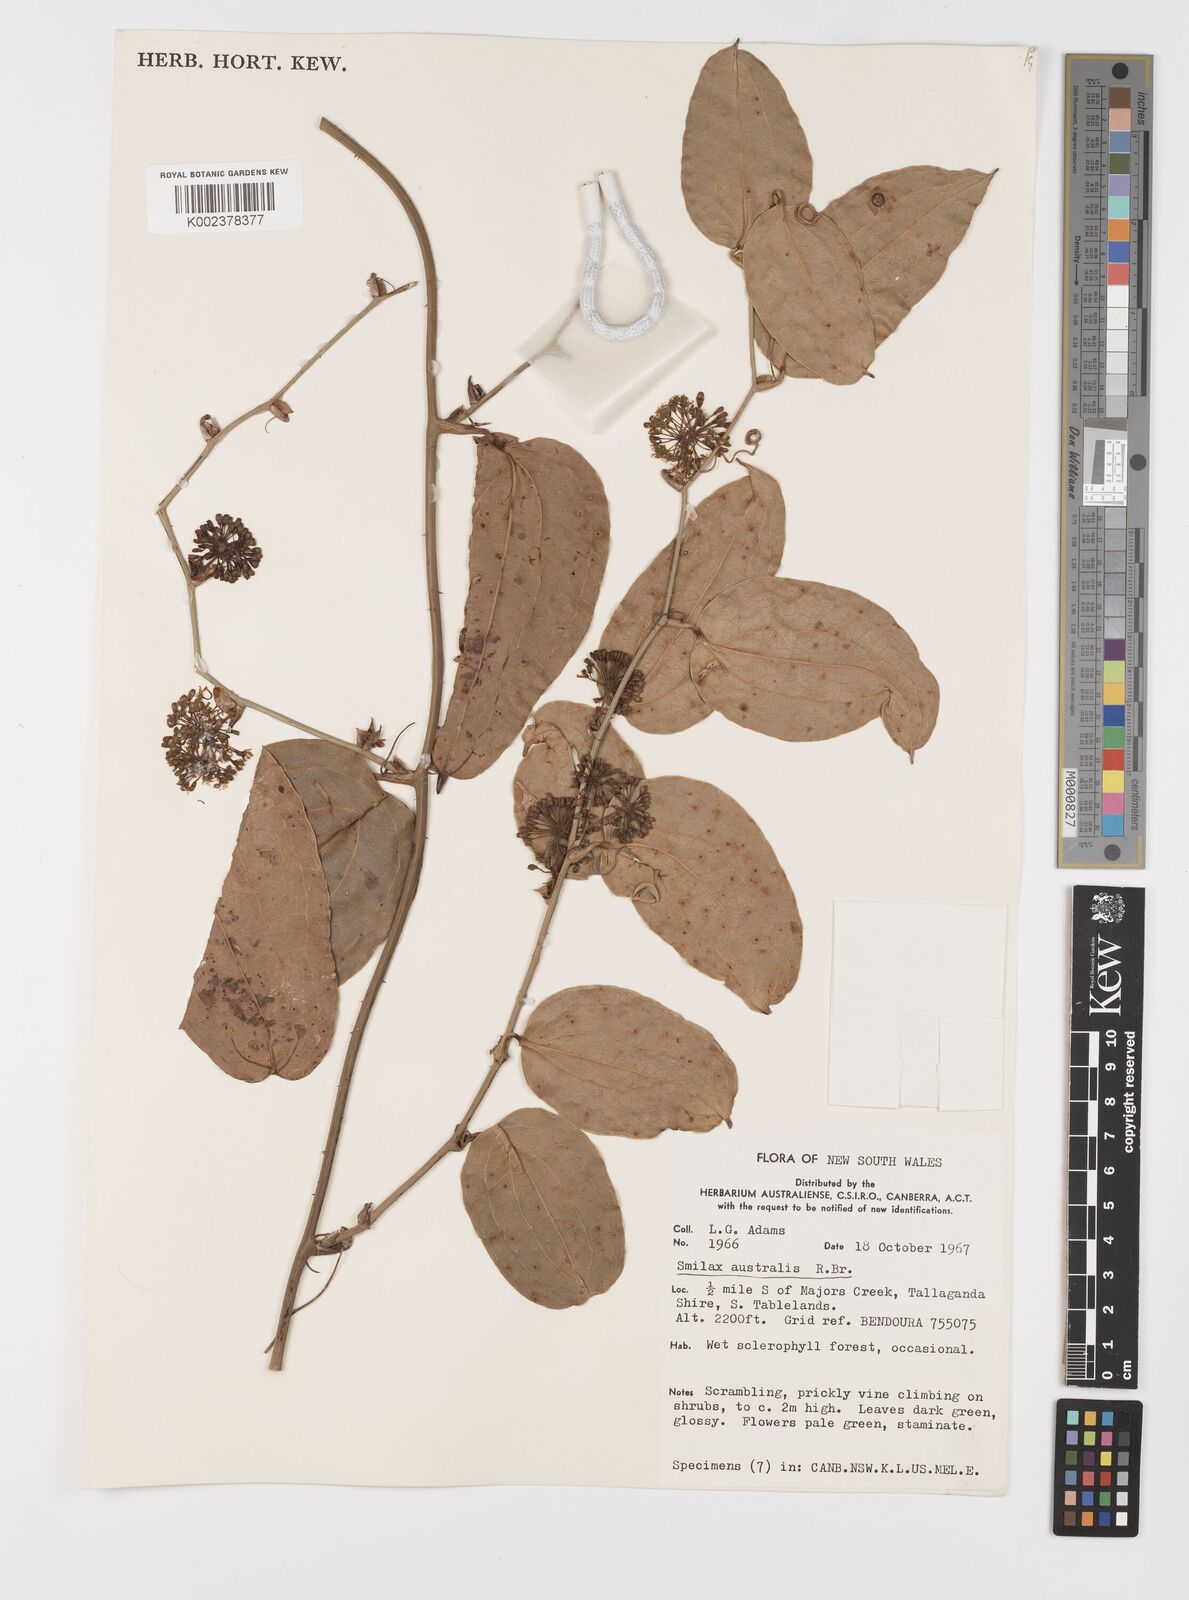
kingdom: Plantae
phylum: Tracheophyta
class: Liliopsida
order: Liliales
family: Smilacaceae
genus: Smilax
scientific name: Smilax australis
